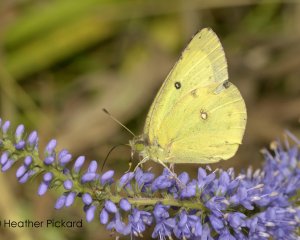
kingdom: Animalia
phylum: Arthropoda
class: Insecta
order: Lepidoptera
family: Pieridae
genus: Colias
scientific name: Colias philodice
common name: Clouded Sulphur
